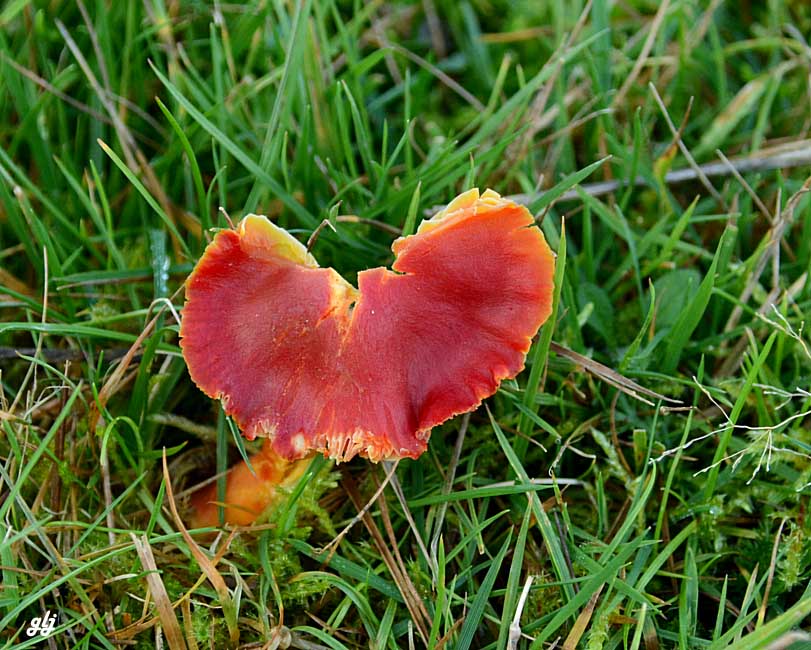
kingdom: Fungi
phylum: Basidiomycota
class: Agaricomycetes
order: Agaricales
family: Hygrophoraceae
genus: Hygrocybe
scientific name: Hygrocybe coccinea
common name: cinnober-vokshat
